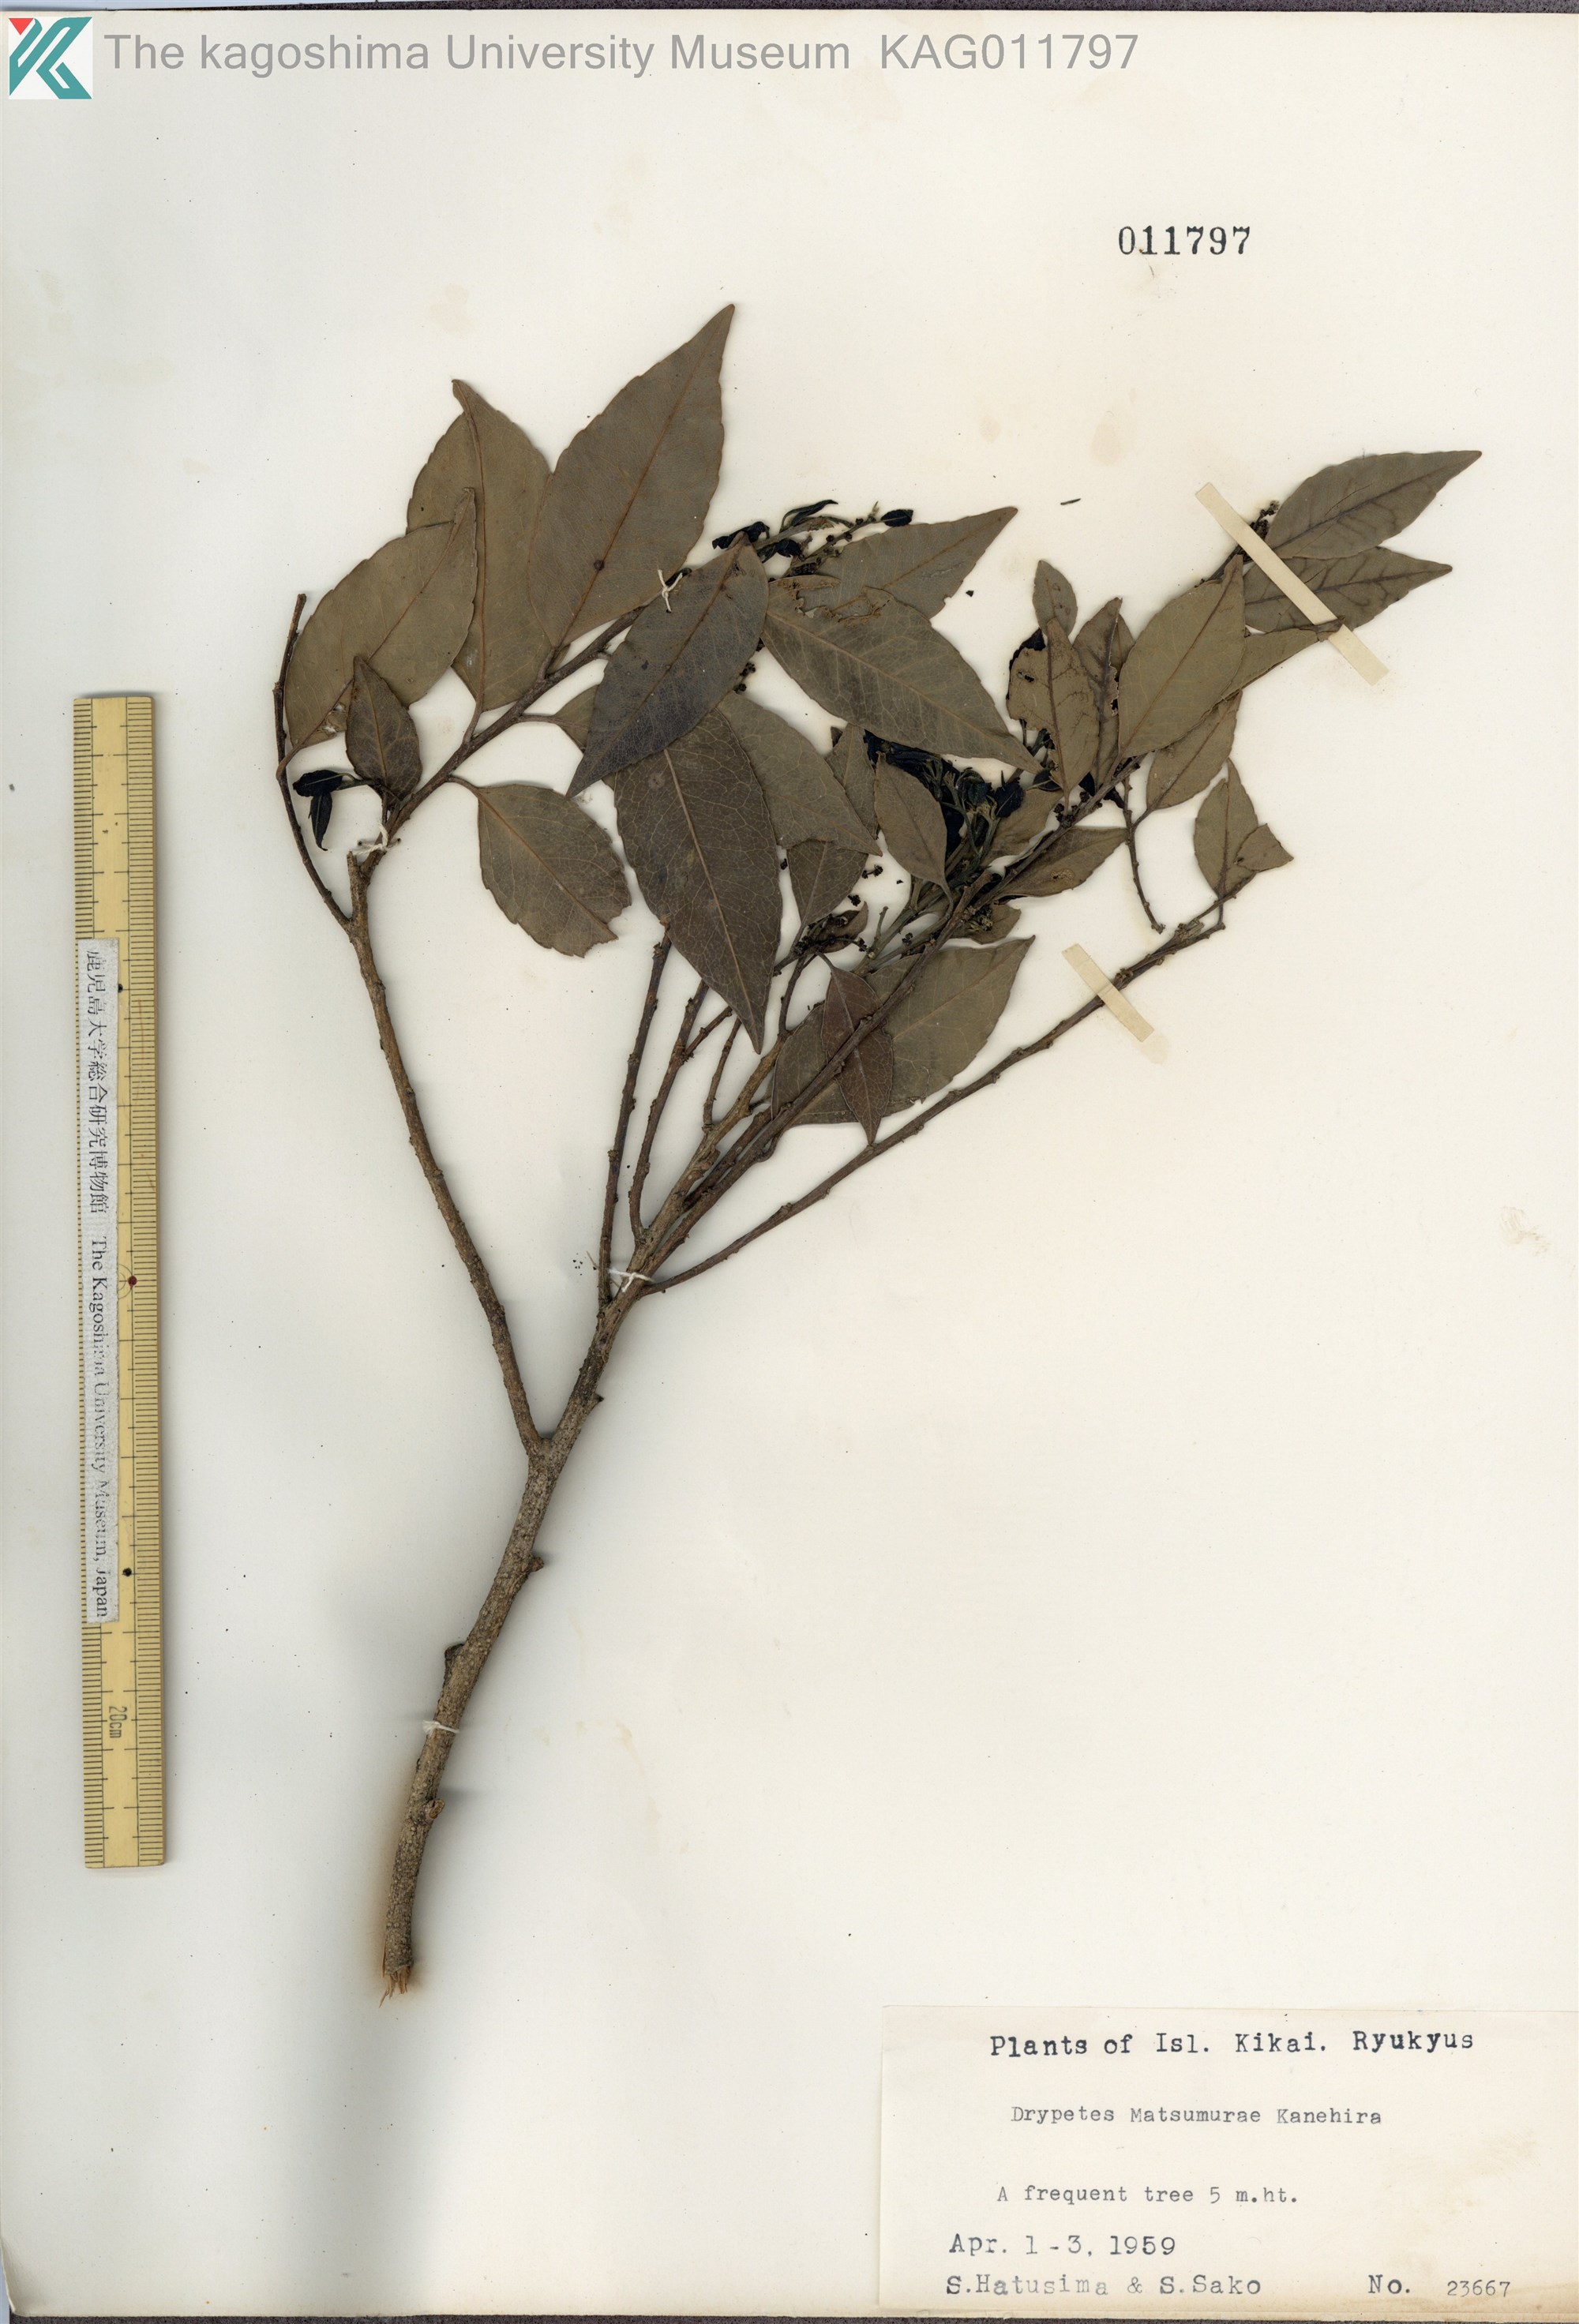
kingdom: Plantae
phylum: Tracheophyta
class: Magnoliopsida
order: Malpighiales
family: Putranjivaceae
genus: Putranjiva
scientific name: Putranjiva matsumurae
